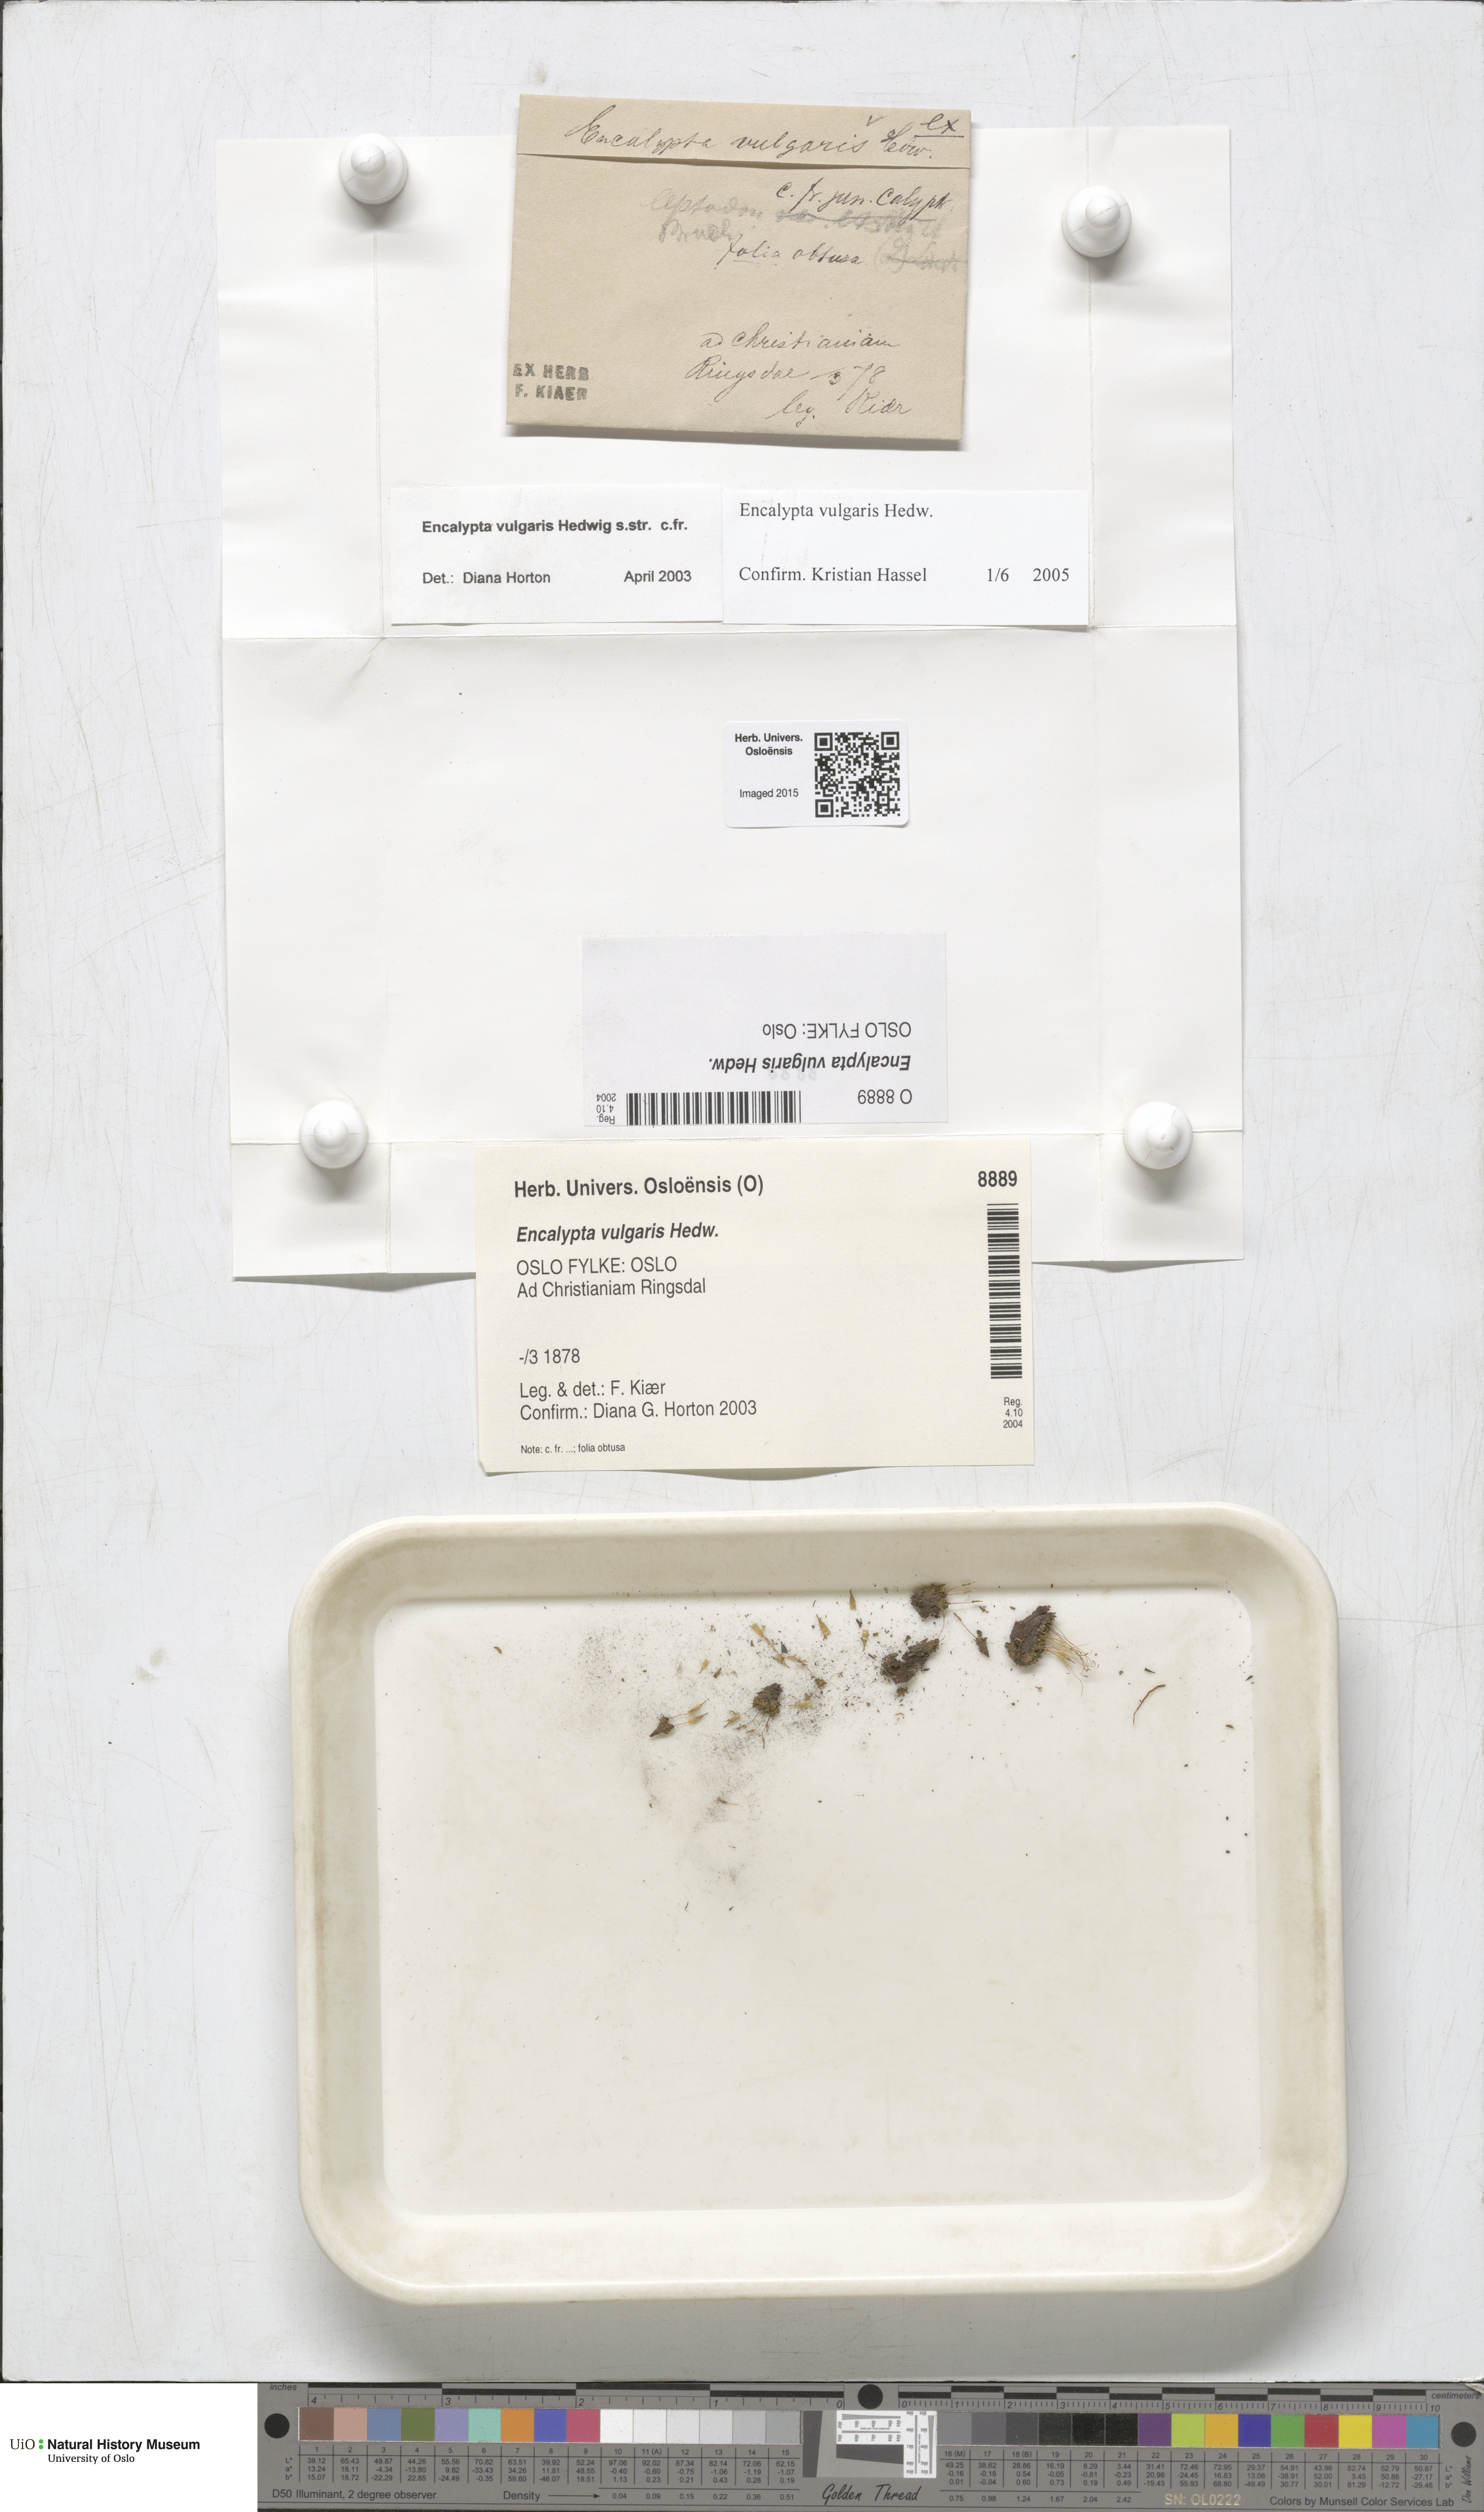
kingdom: Plantae
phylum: Bryophyta
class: Bryopsida
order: Encalyptales
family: Encalyptaceae
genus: Encalypta
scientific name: Encalypta vulgaris
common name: Common extinguisher-moss
